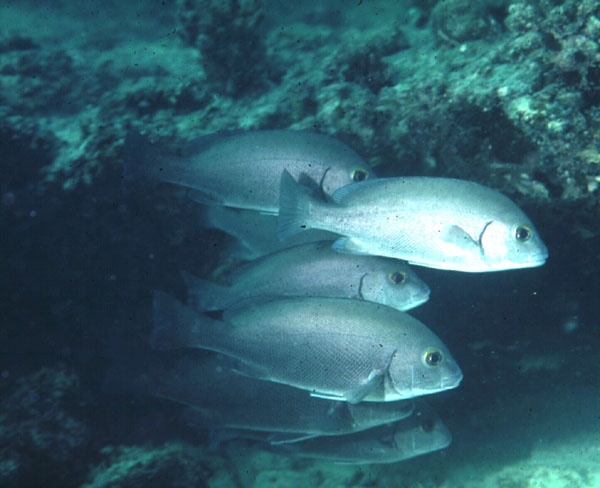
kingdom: Animalia
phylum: Chordata
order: Perciformes
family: Haemulidae
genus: Plectorhinchus
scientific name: Plectorhinchus sordidus
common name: Sordid rubberlip
